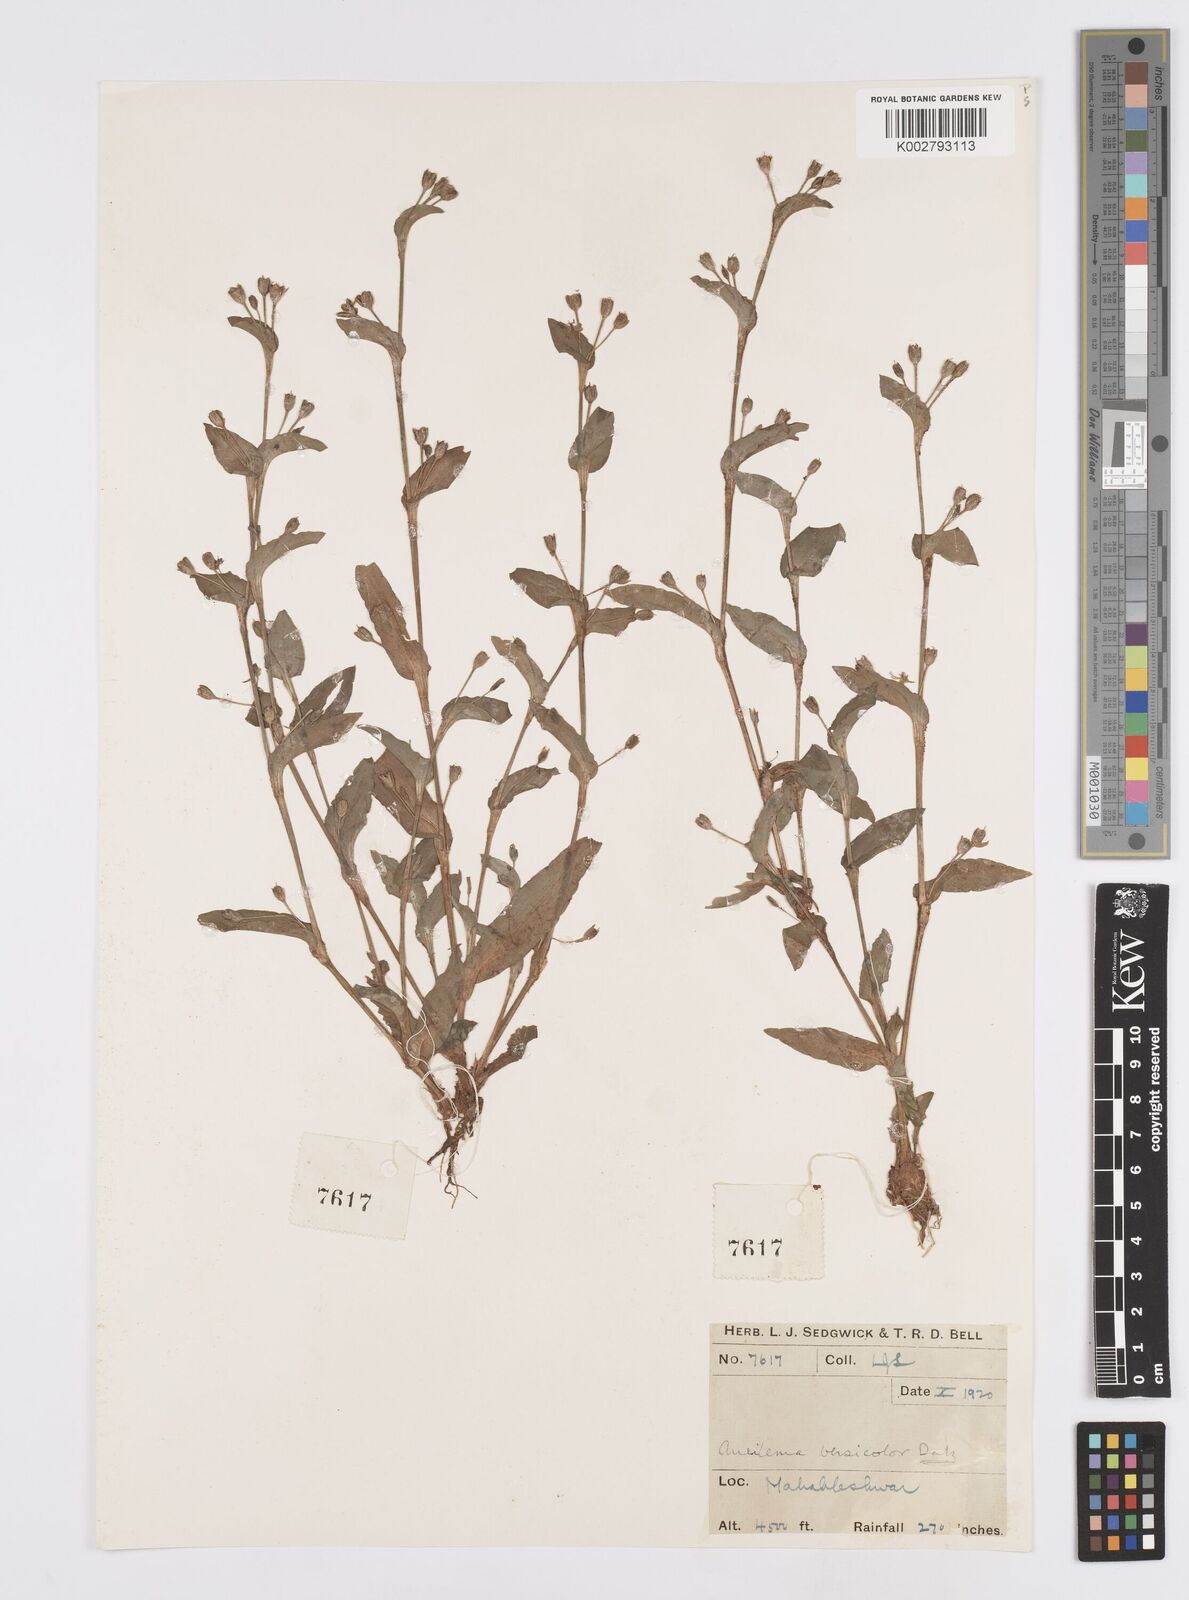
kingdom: Plantae
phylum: Tracheophyta
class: Liliopsida
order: Commelinales
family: Commelinaceae
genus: Murdannia
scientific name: Murdannia versicolor
